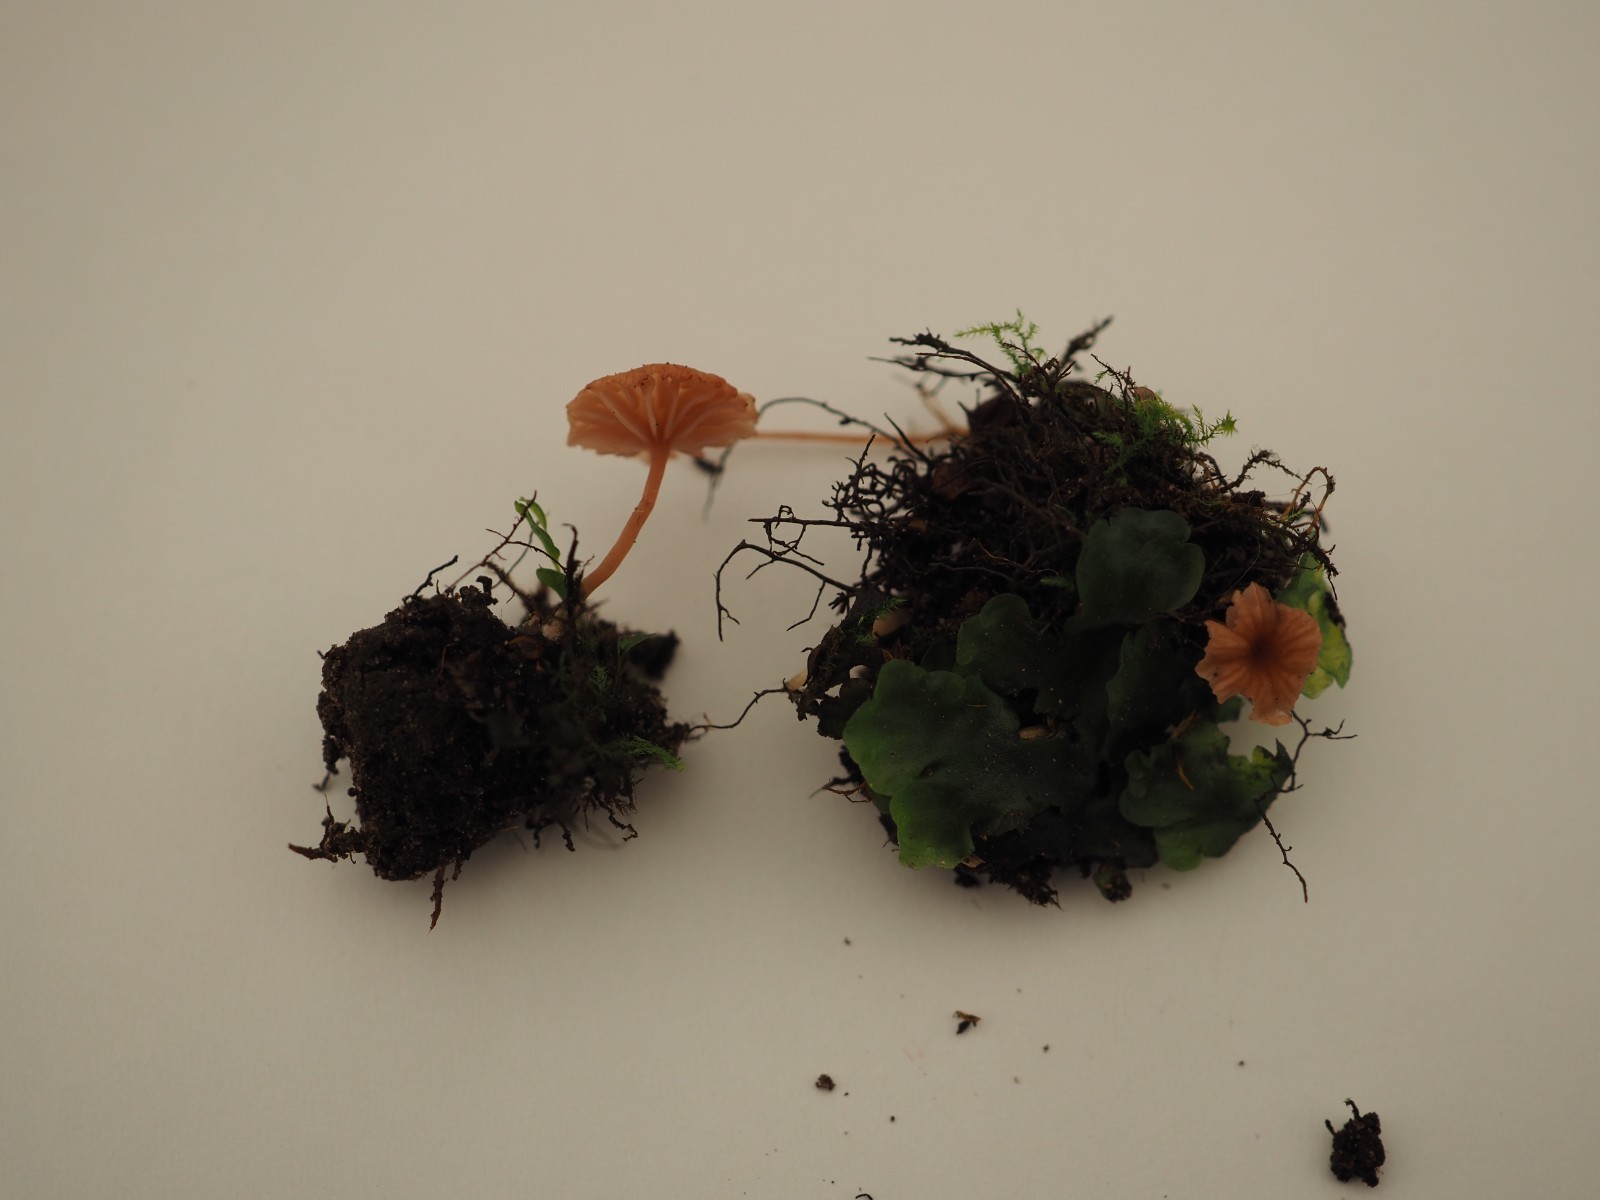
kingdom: Fungi
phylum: Basidiomycota
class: Agaricomycetes
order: Agaricales
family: Hydnangiaceae
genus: Laccaria
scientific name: Laccaria tortilis
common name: krybende ametysthat
